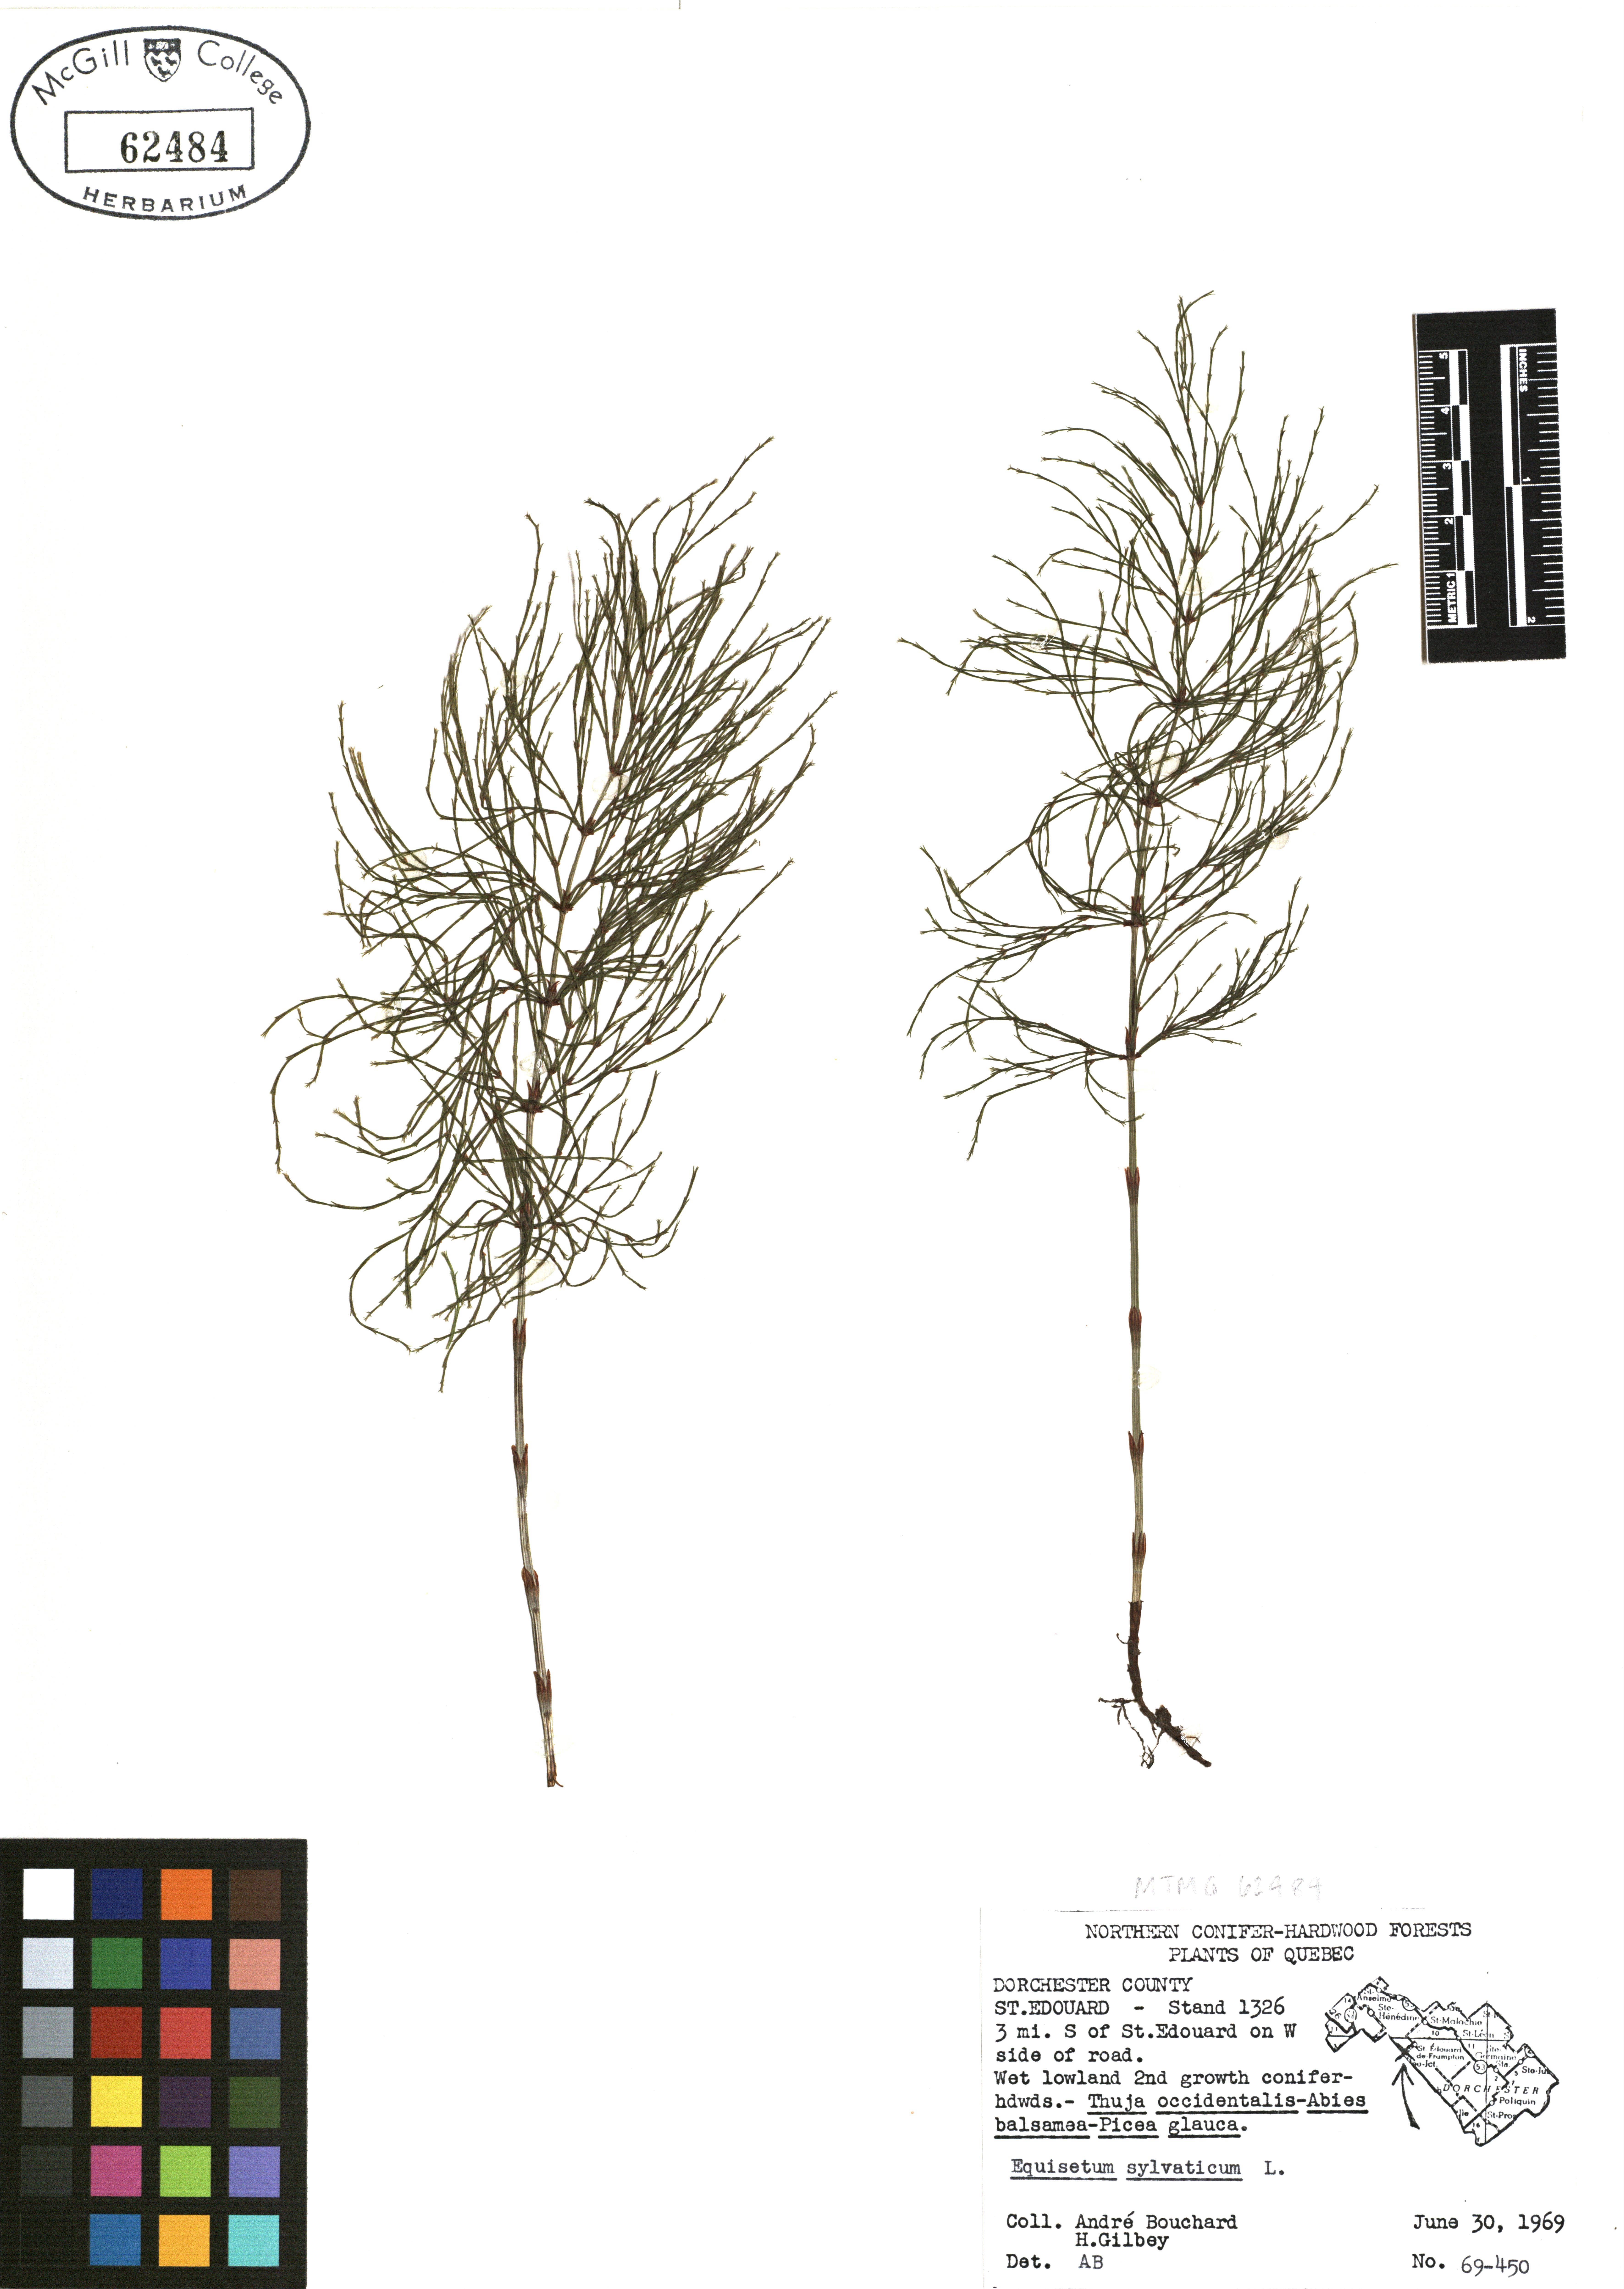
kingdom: Plantae
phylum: Tracheophyta
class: Polypodiopsida
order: Equisetales
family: Equisetaceae
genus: Equisetum
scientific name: Equisetum sylvaticum
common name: Wood horsetail
